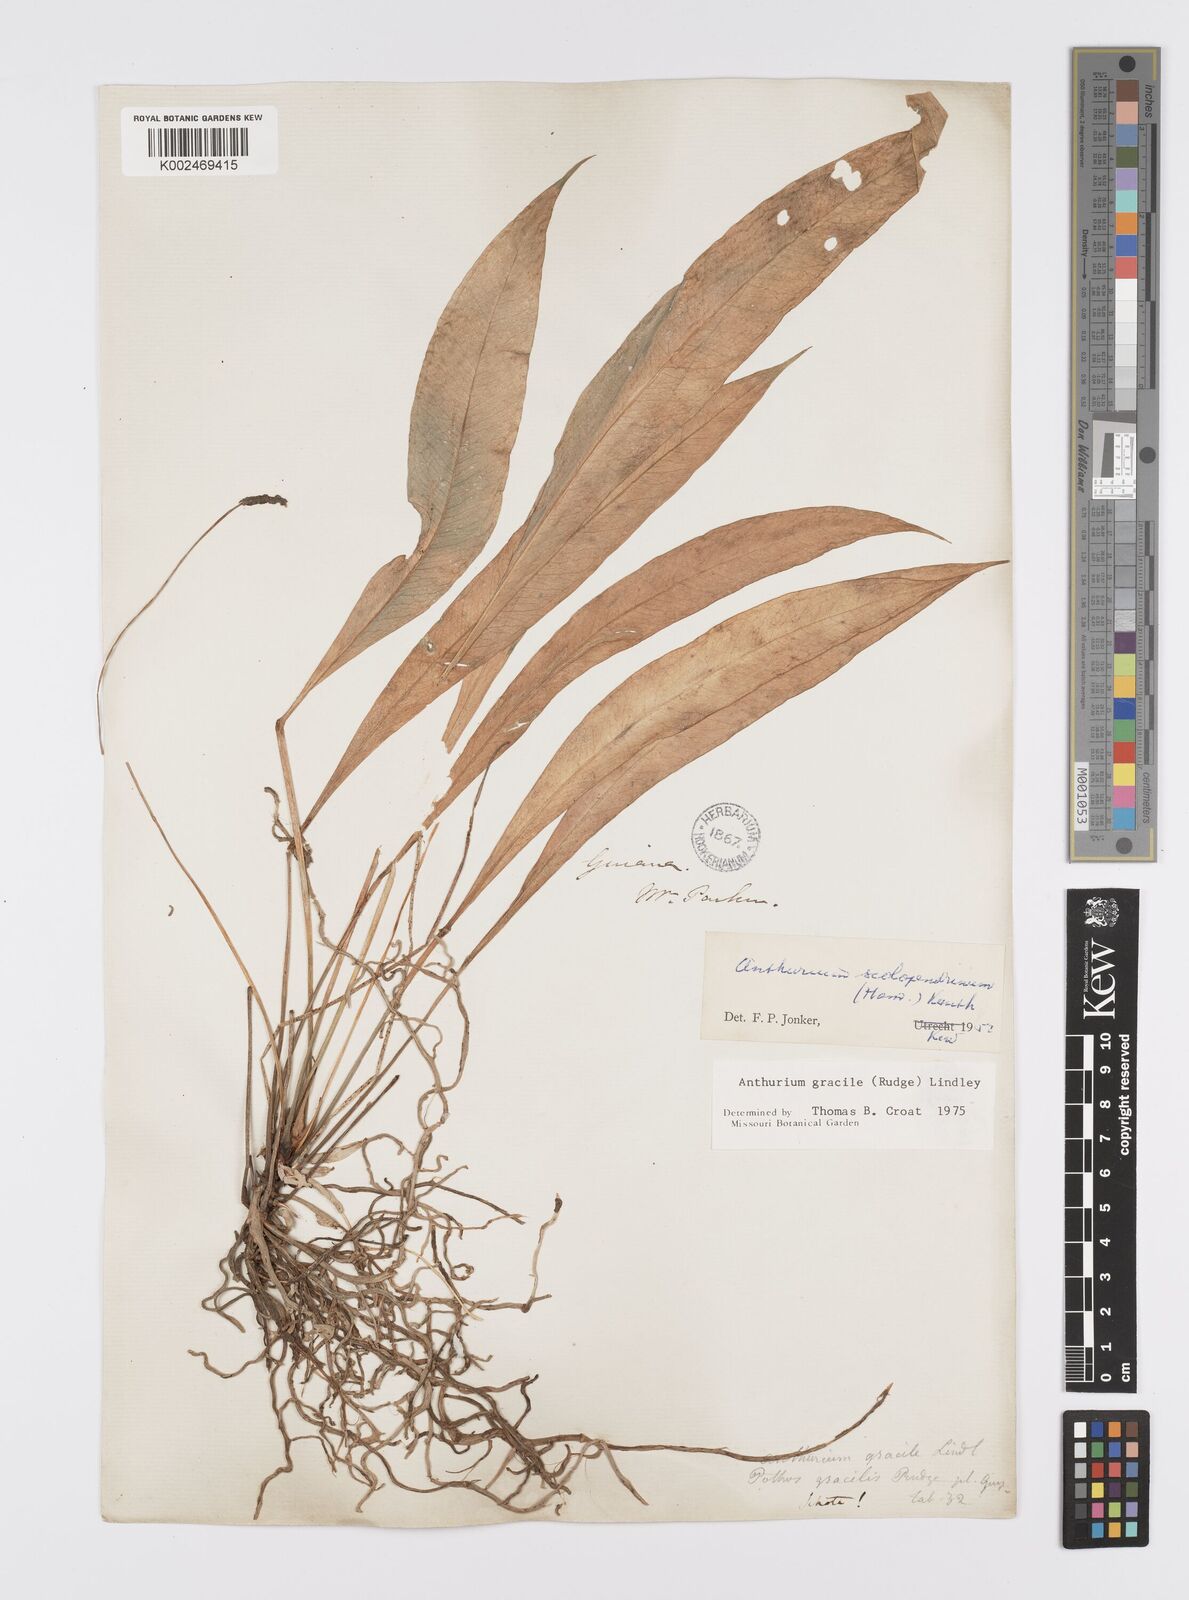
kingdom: Plantae
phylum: Tracheophyta
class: Liliopsida
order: Alismatales
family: Araceae
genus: Anthurium
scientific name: Anthurium gracile
